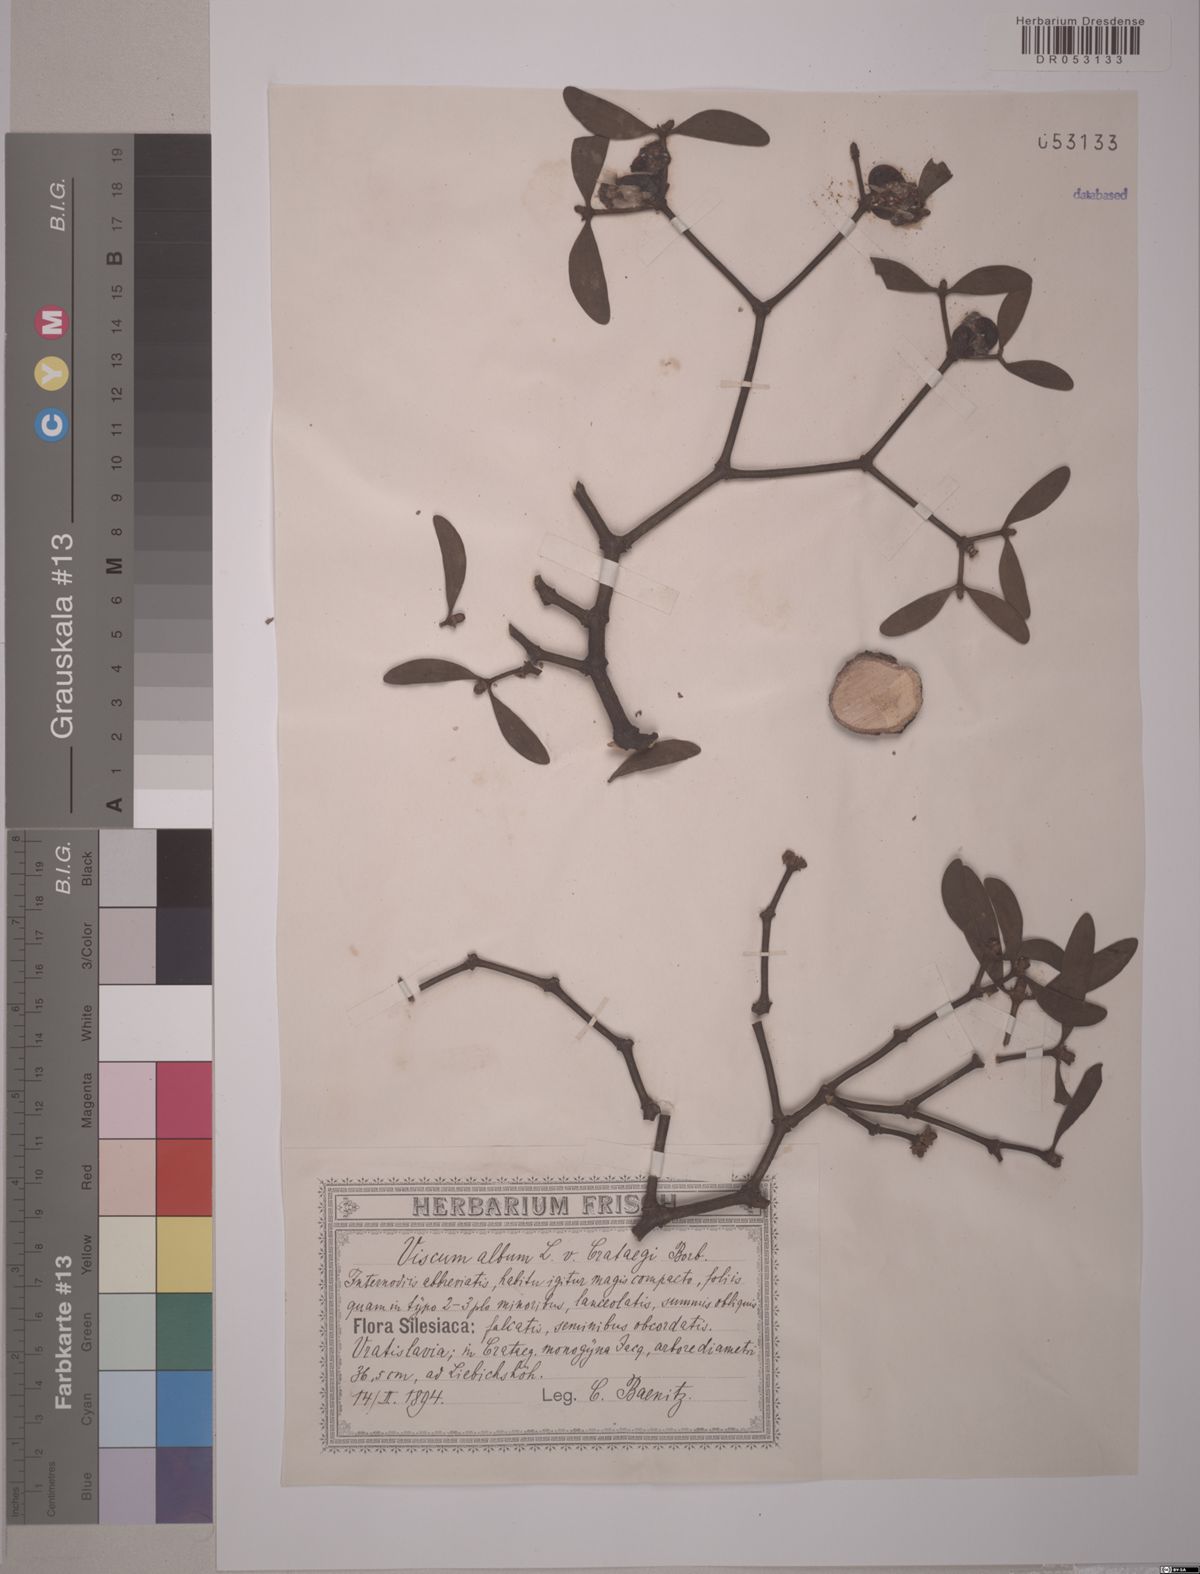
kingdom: Plantae
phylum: Tracheophyta
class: Magnoliopsida
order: Santalales
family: Viscaceae
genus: Viscum
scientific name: Viscum album
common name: Mistletoe
